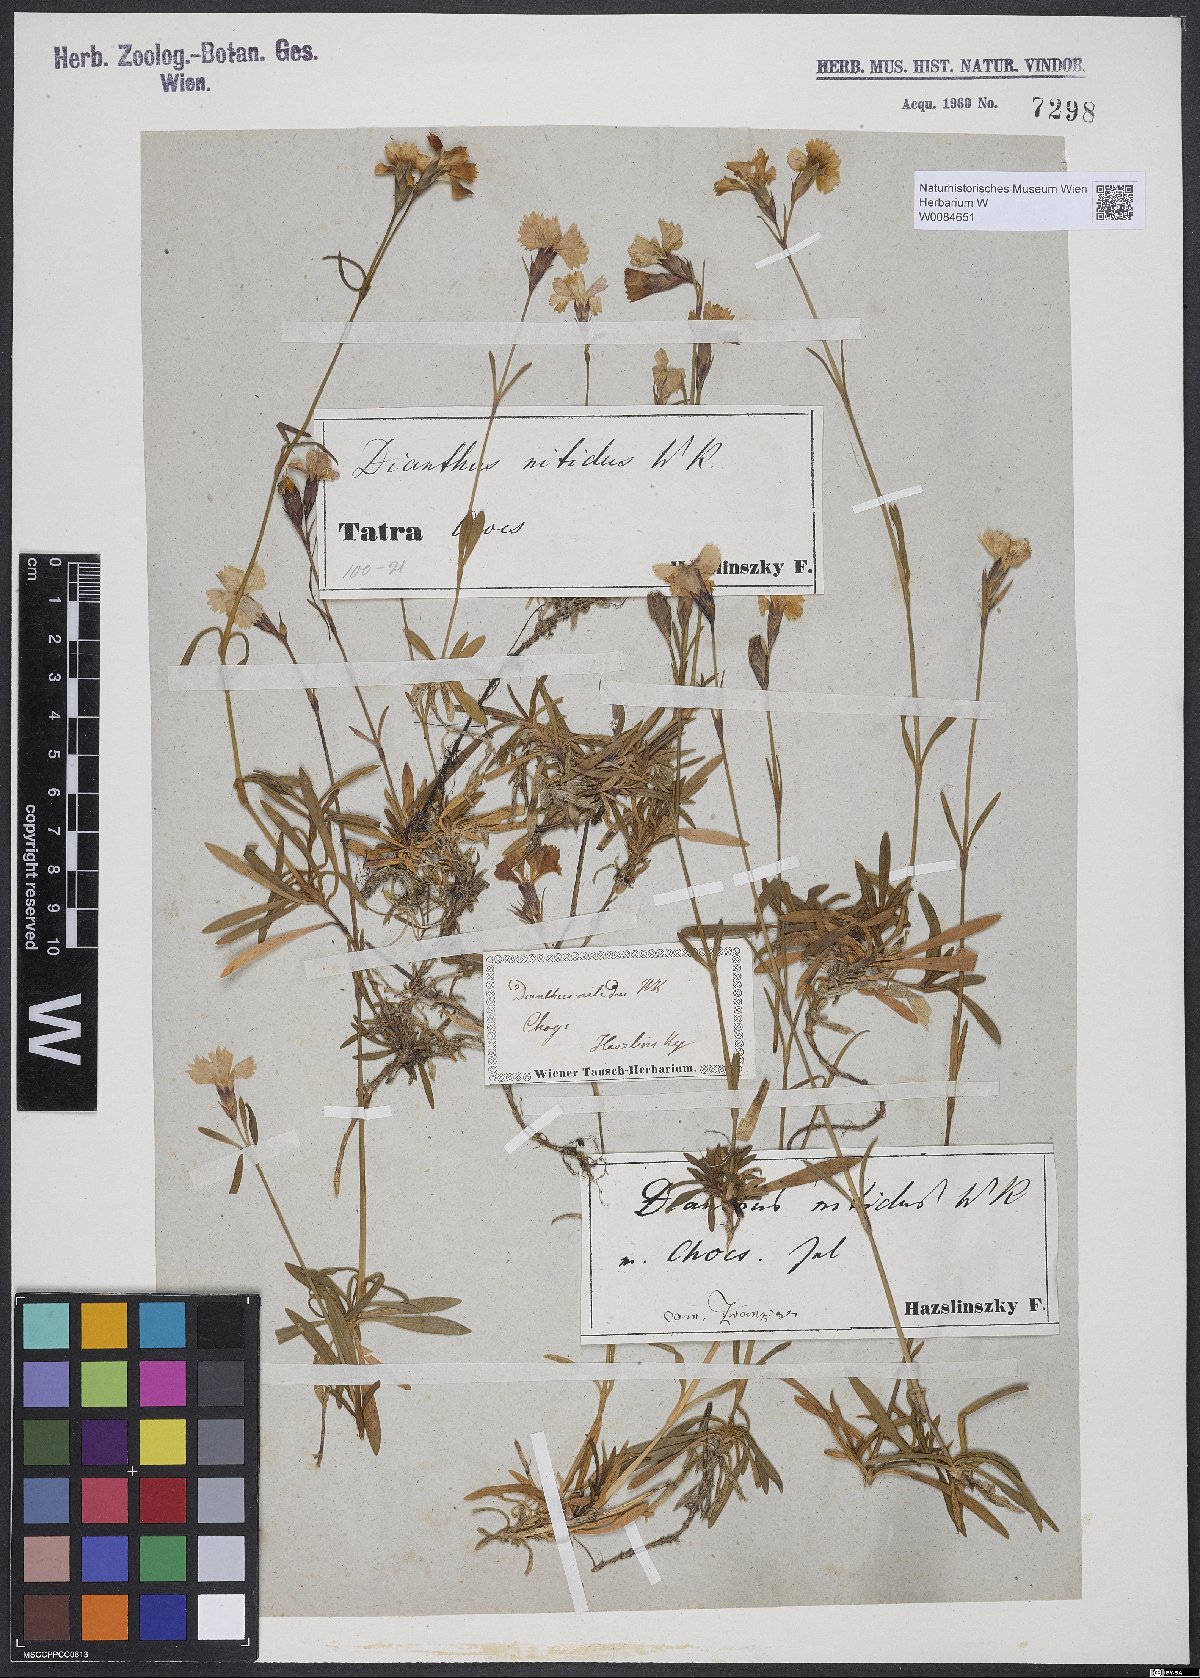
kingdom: Plantae
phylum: Tracheophyta
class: Magnoliopsida
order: Caryophyllales
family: Caryophyllaceae
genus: Dianthus
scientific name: Dianthus nitidus
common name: Carpathian glossy pink
